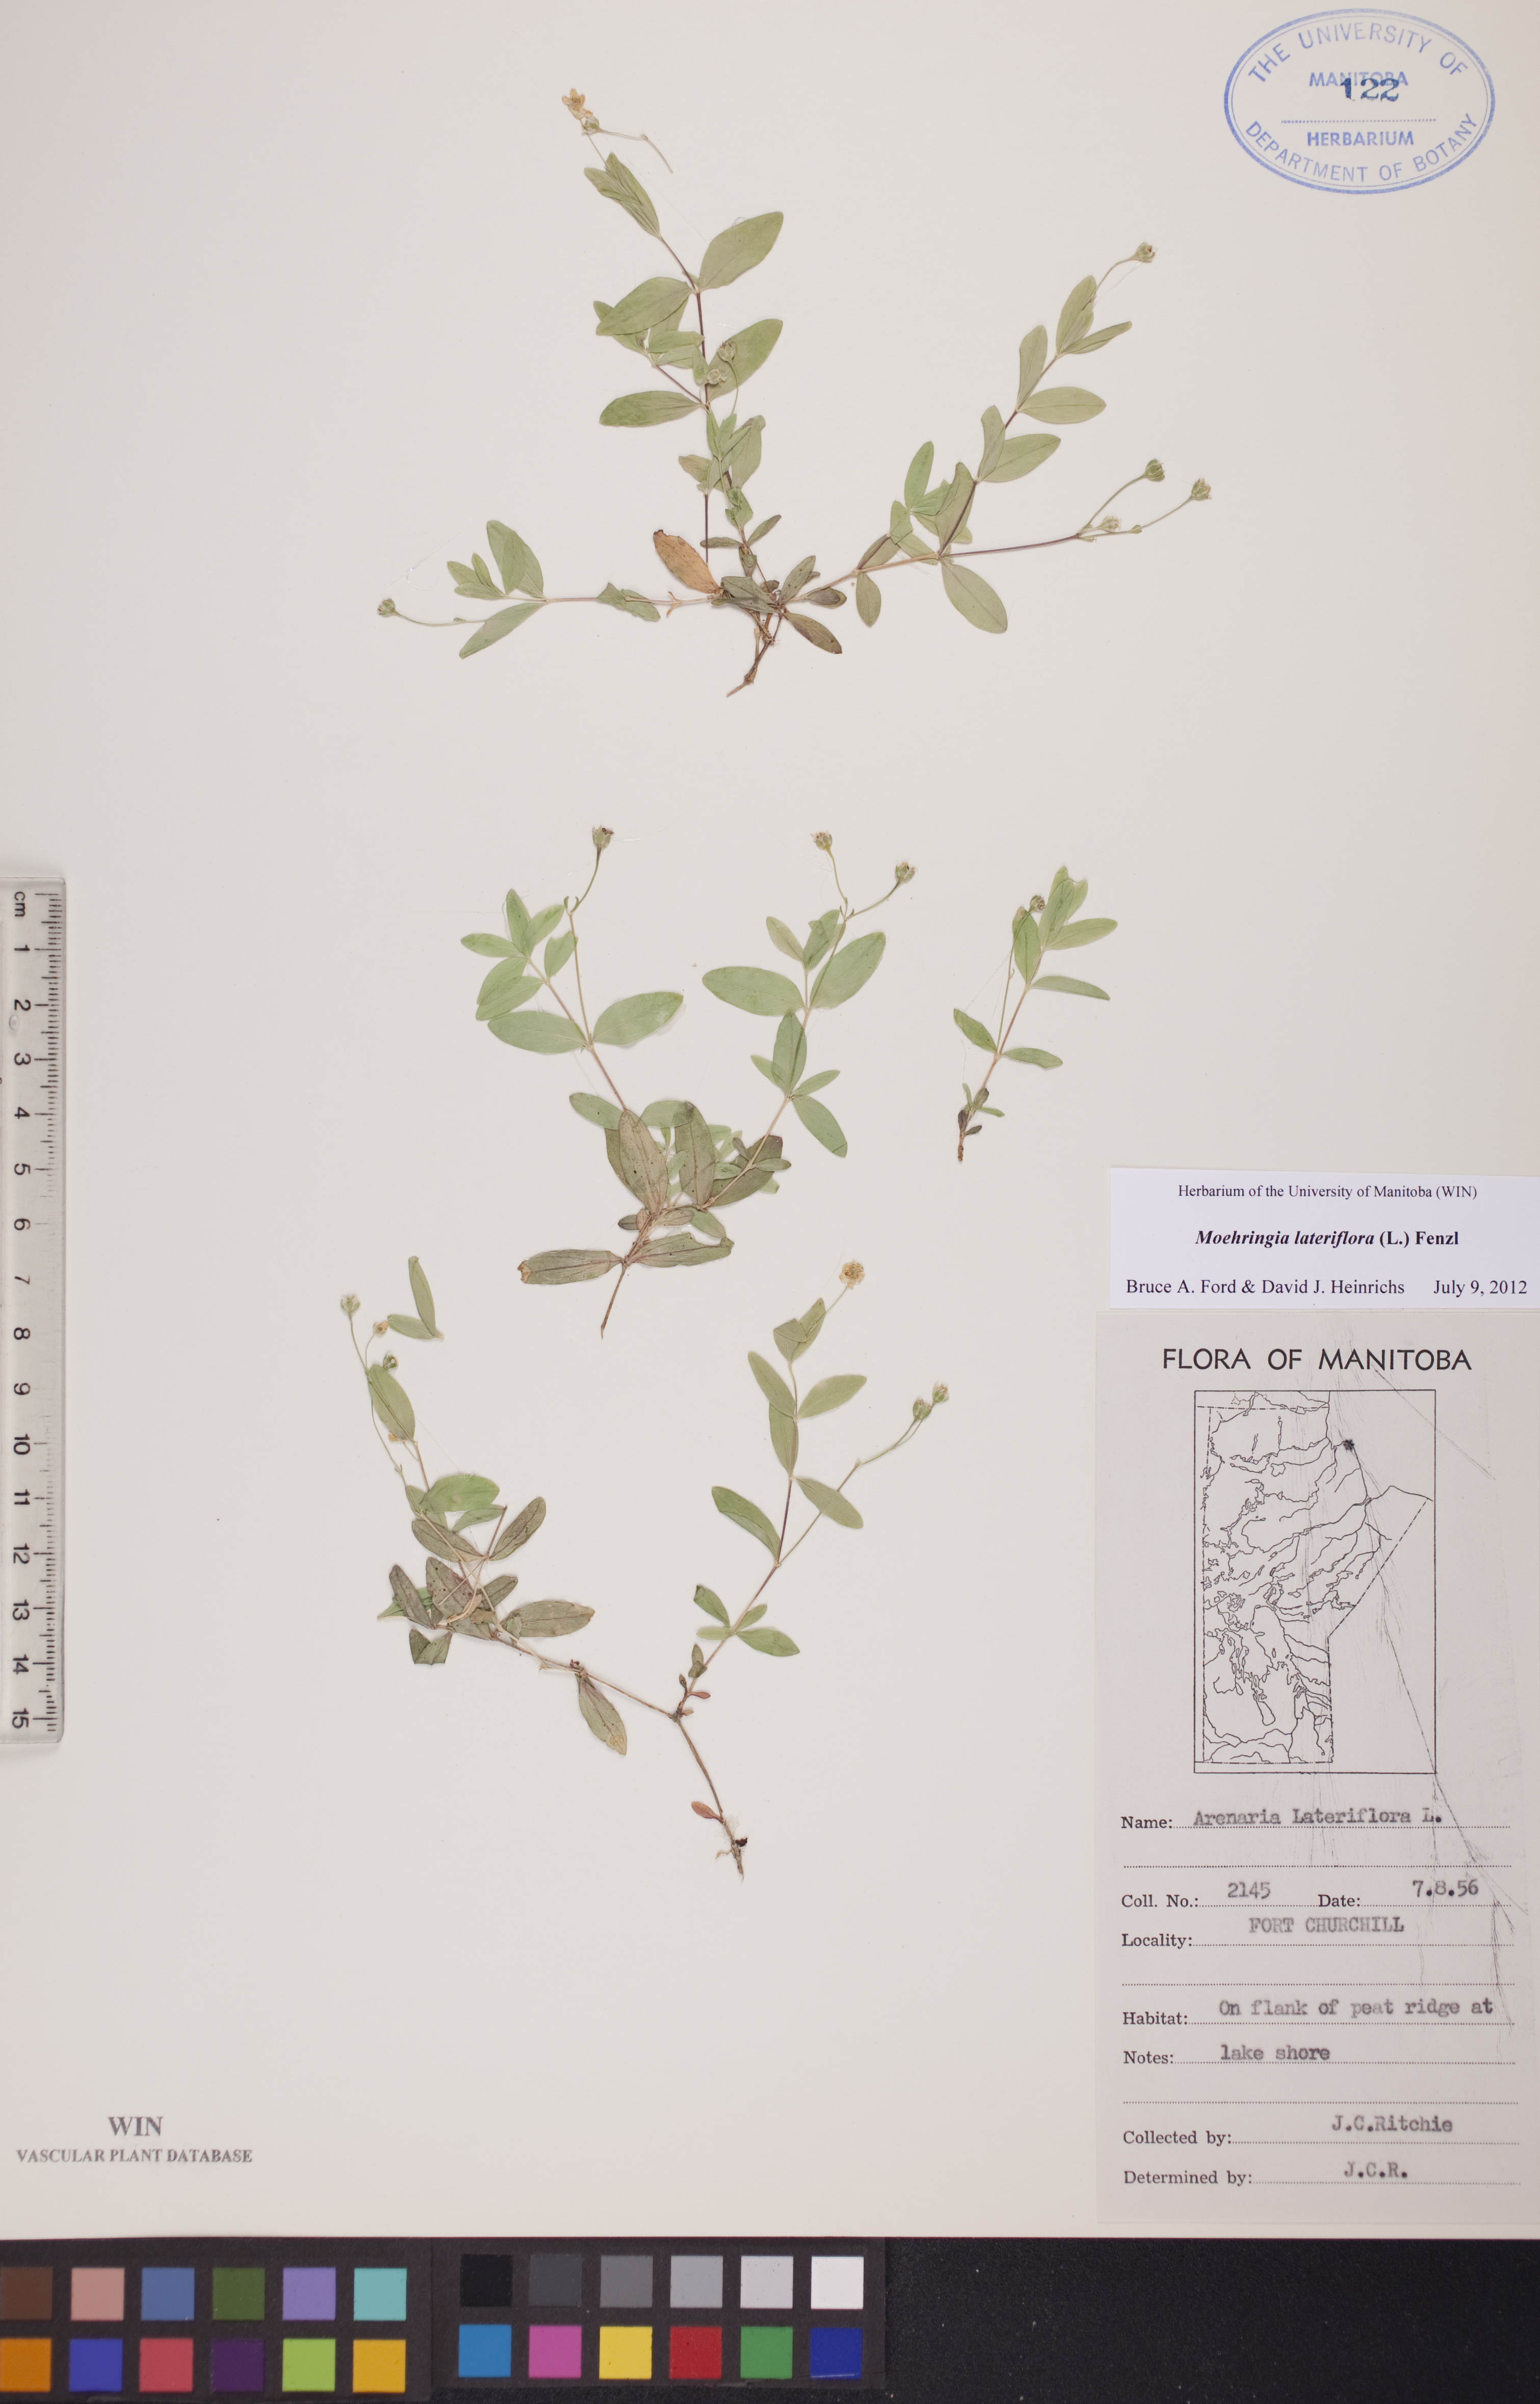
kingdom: Plantae
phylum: Tracheophyta
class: Magnoliopsida
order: Caryophyllales
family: Caryophyllaceae
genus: Moehringia
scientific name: Moehringia lateriflora
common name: Blunt-leaved sandwort
